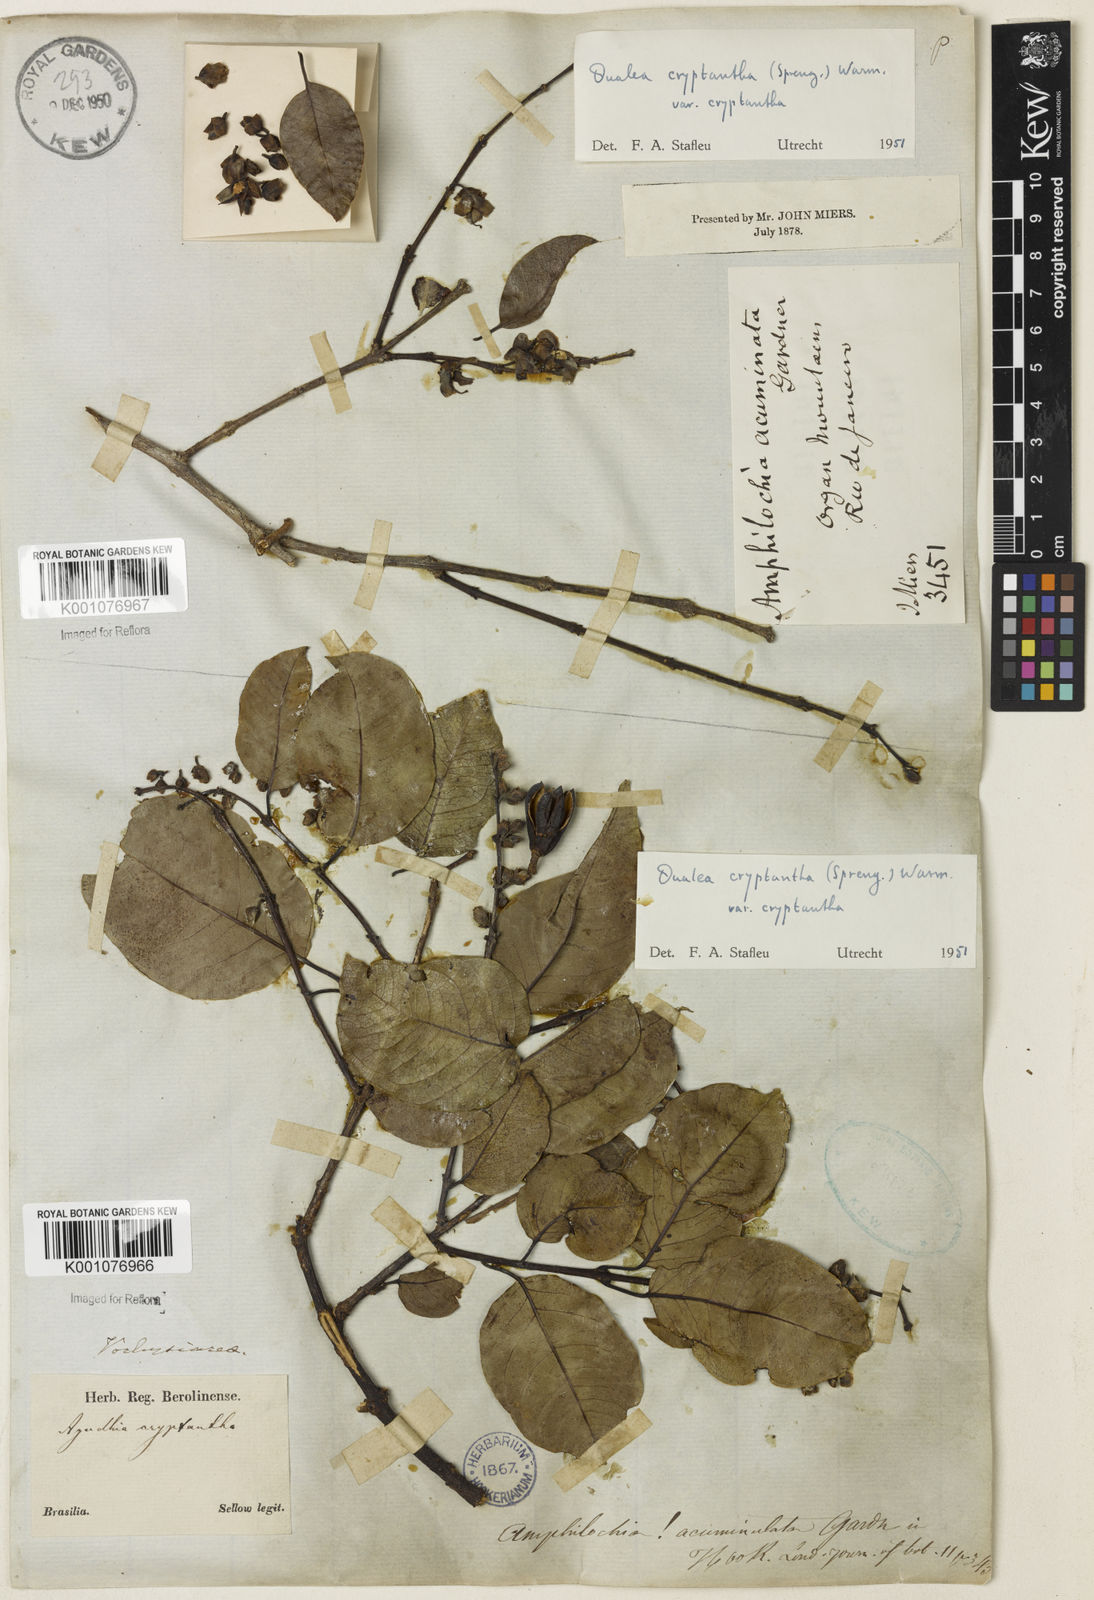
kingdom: Plantae
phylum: Tracheophyta
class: Magnoliopsida
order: Myrtales
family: Vochysiaceae
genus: Qualea
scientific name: Qualea cryptantha
